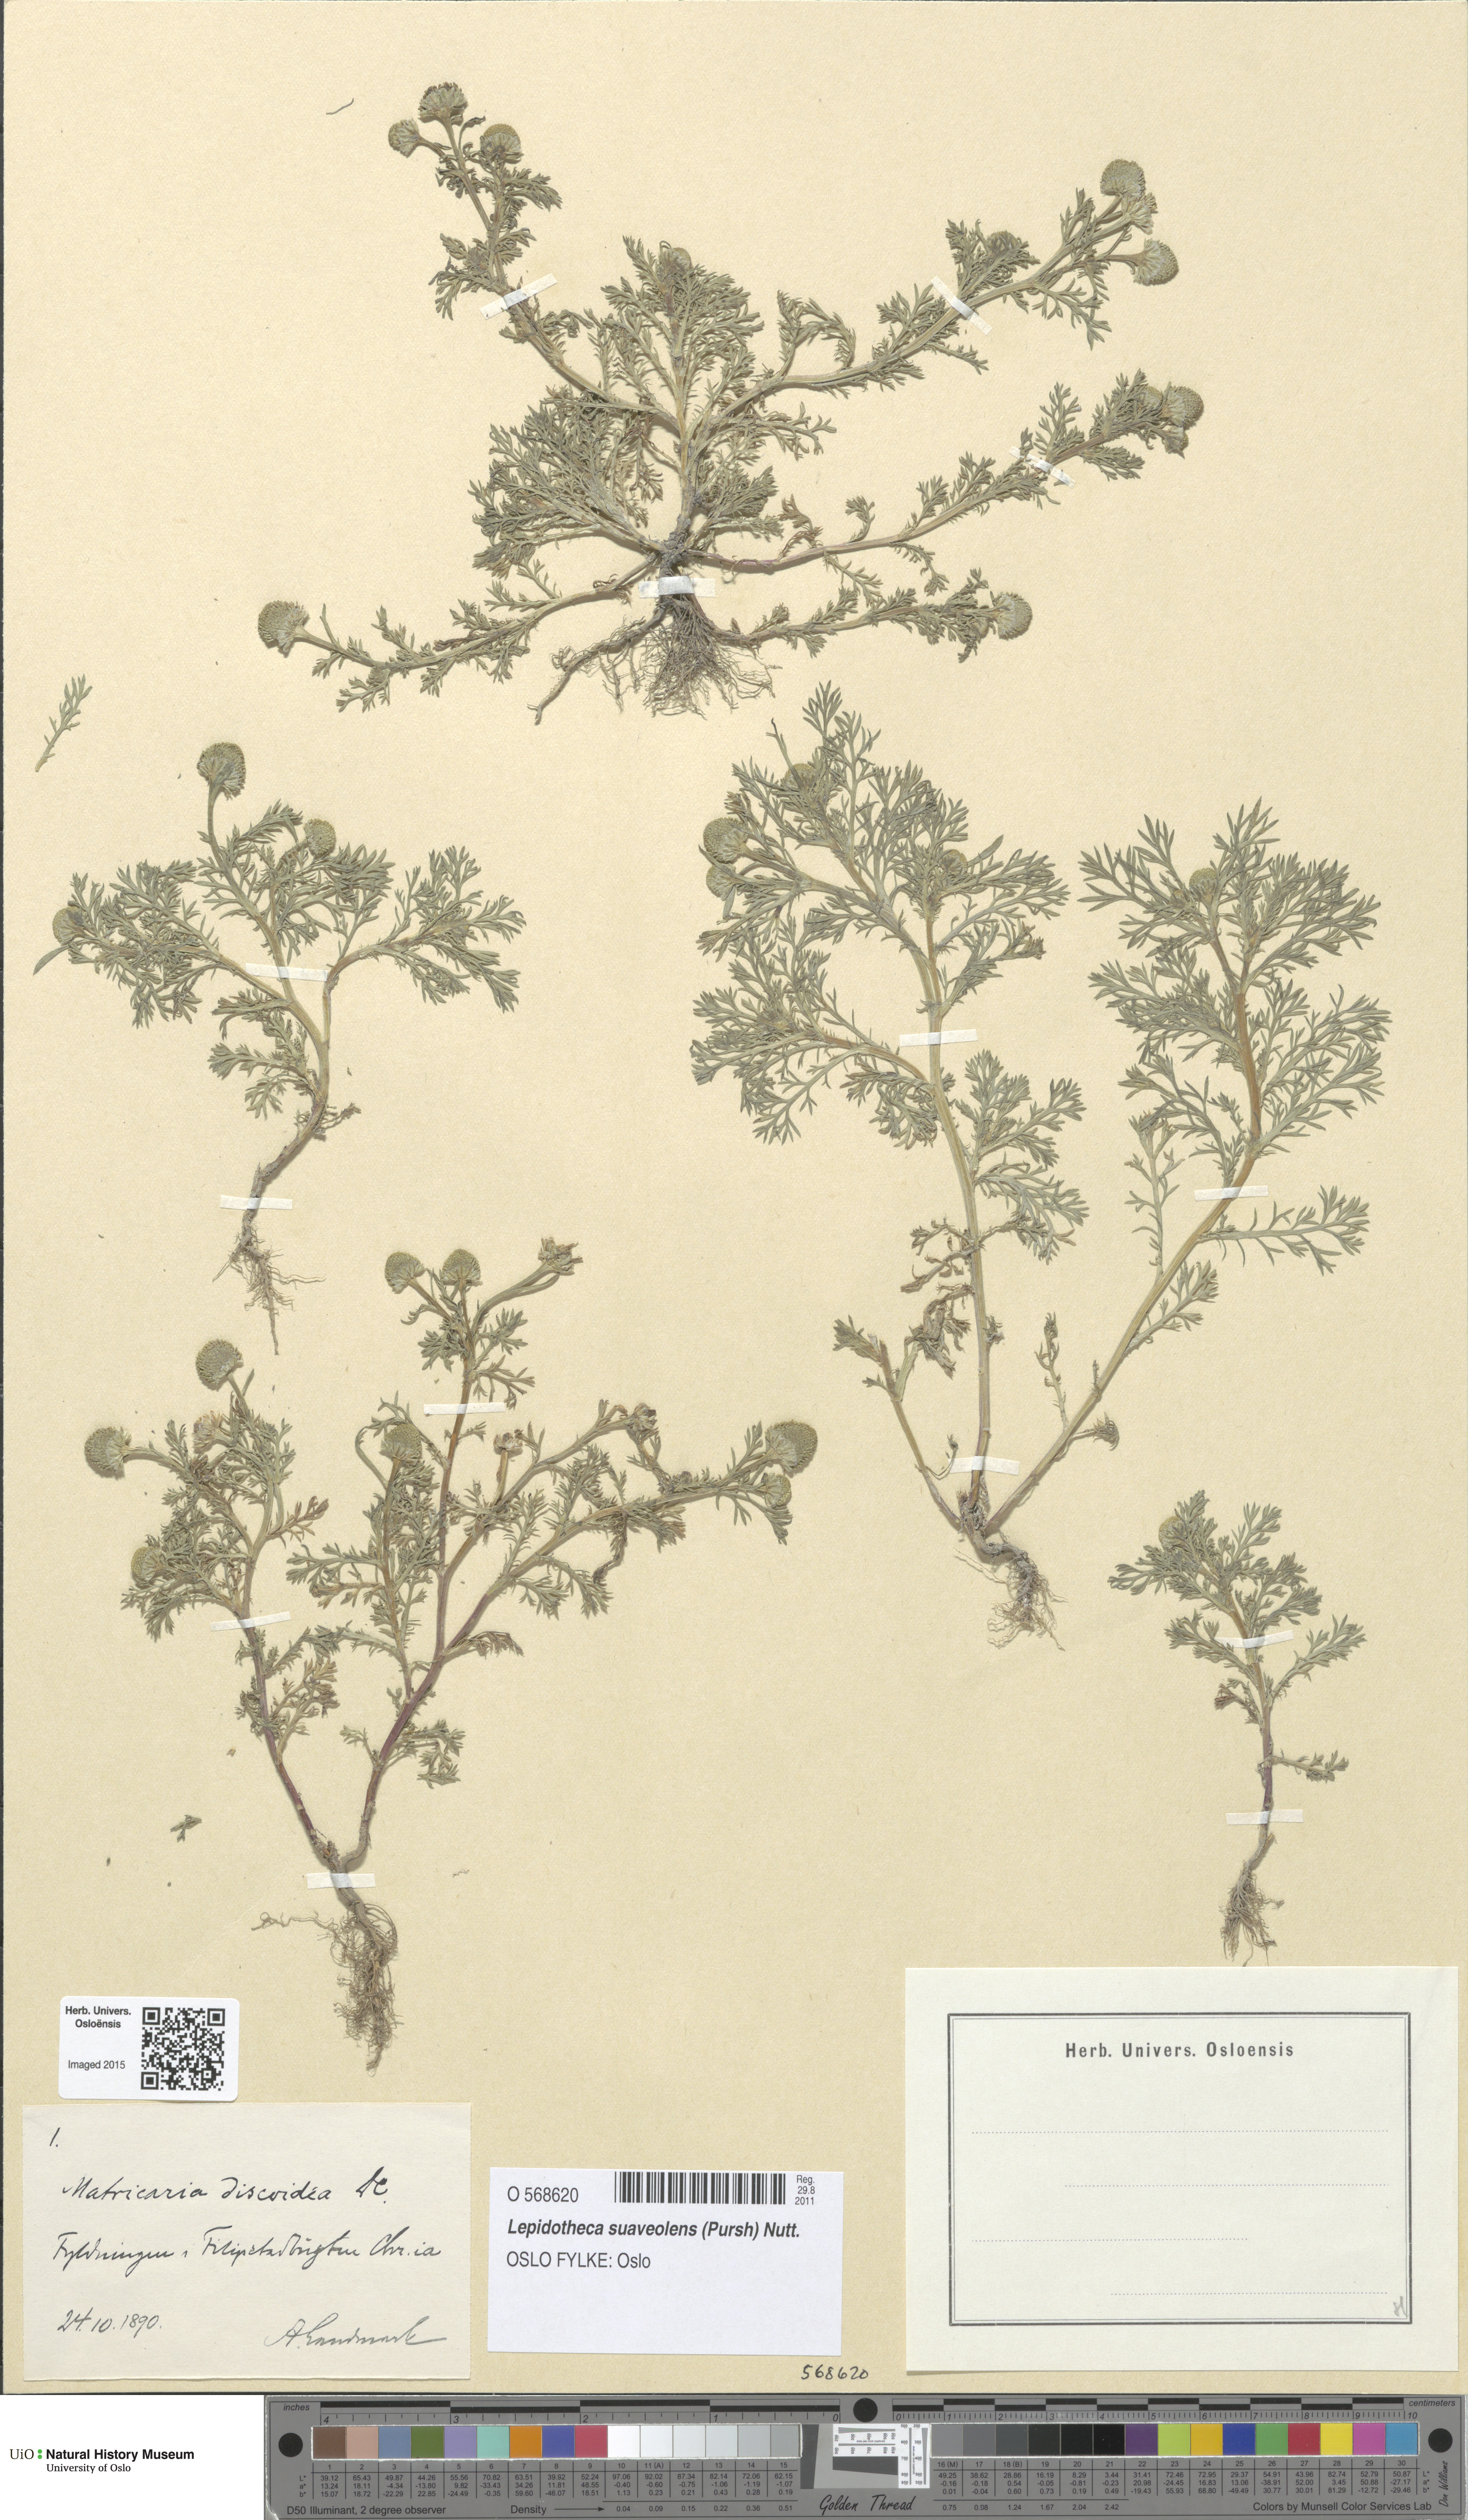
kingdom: Plantae
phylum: Tracheophyta
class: Magnoliopsida
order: Asterales
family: Asteraceae
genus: Matricaria
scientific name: Matricaria discoidea
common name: Disc mayweed
